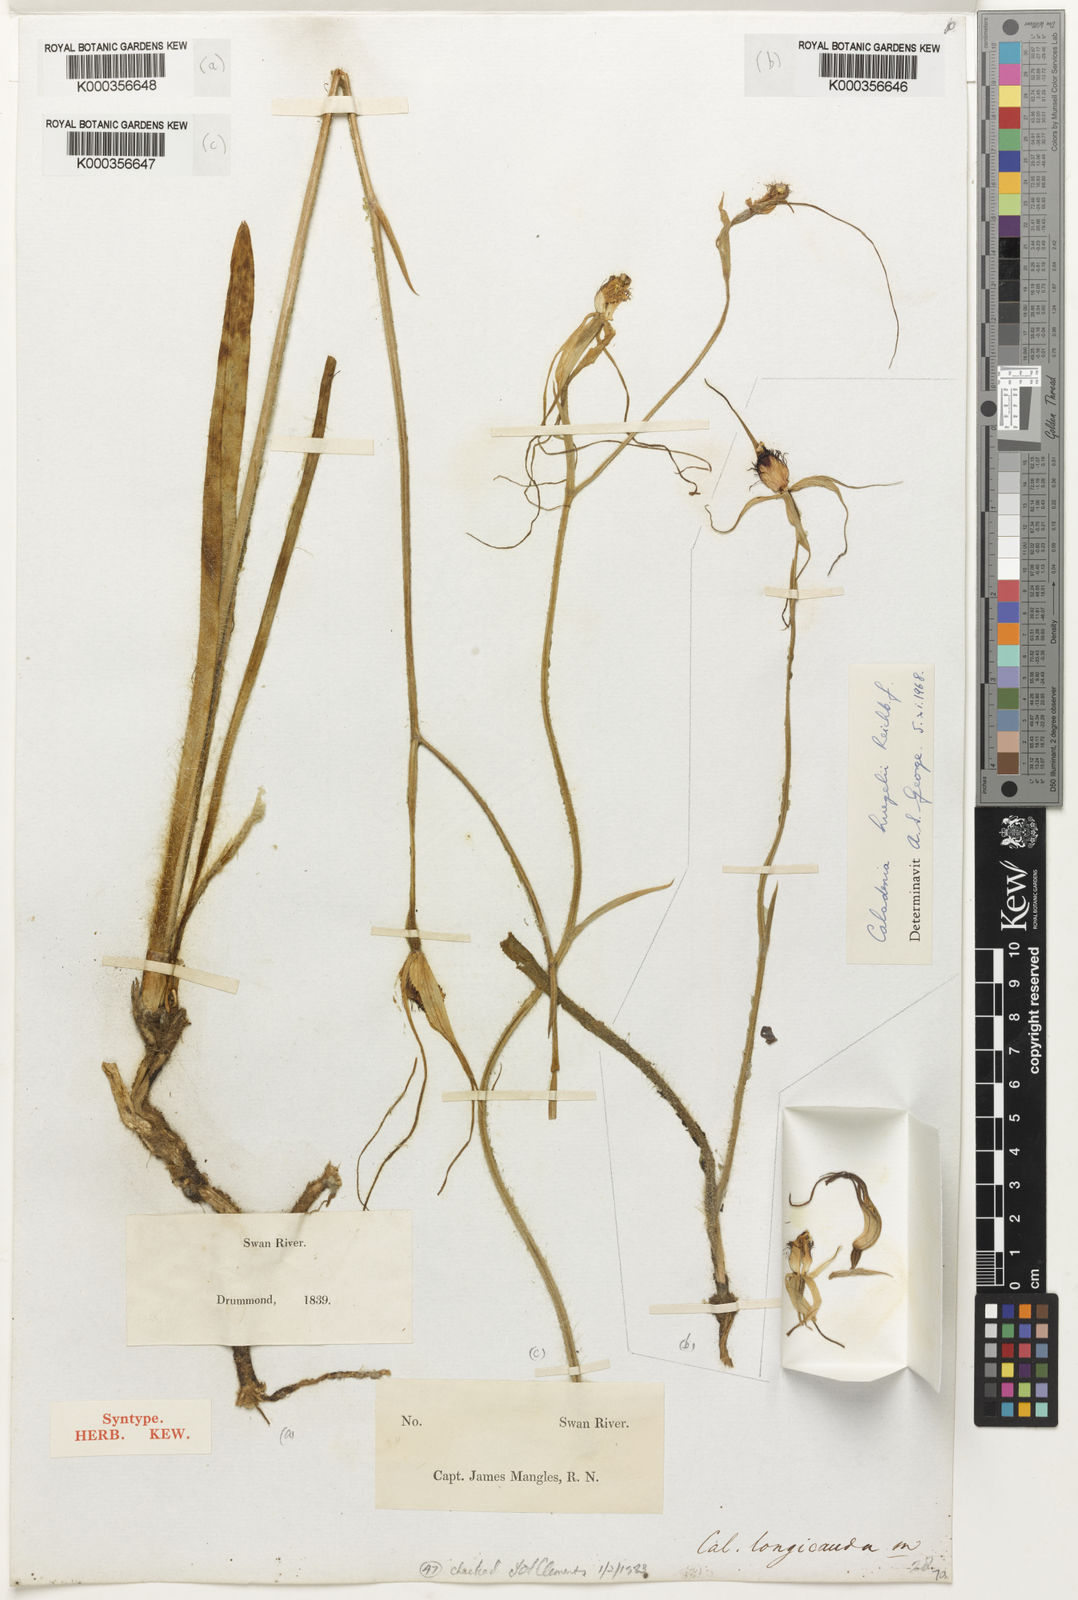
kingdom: Plantae
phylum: Tracheophyta
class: Liliopsida
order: Asparagales
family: Orchidaceae
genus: Caladenia
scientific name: Caladenia huegelii
